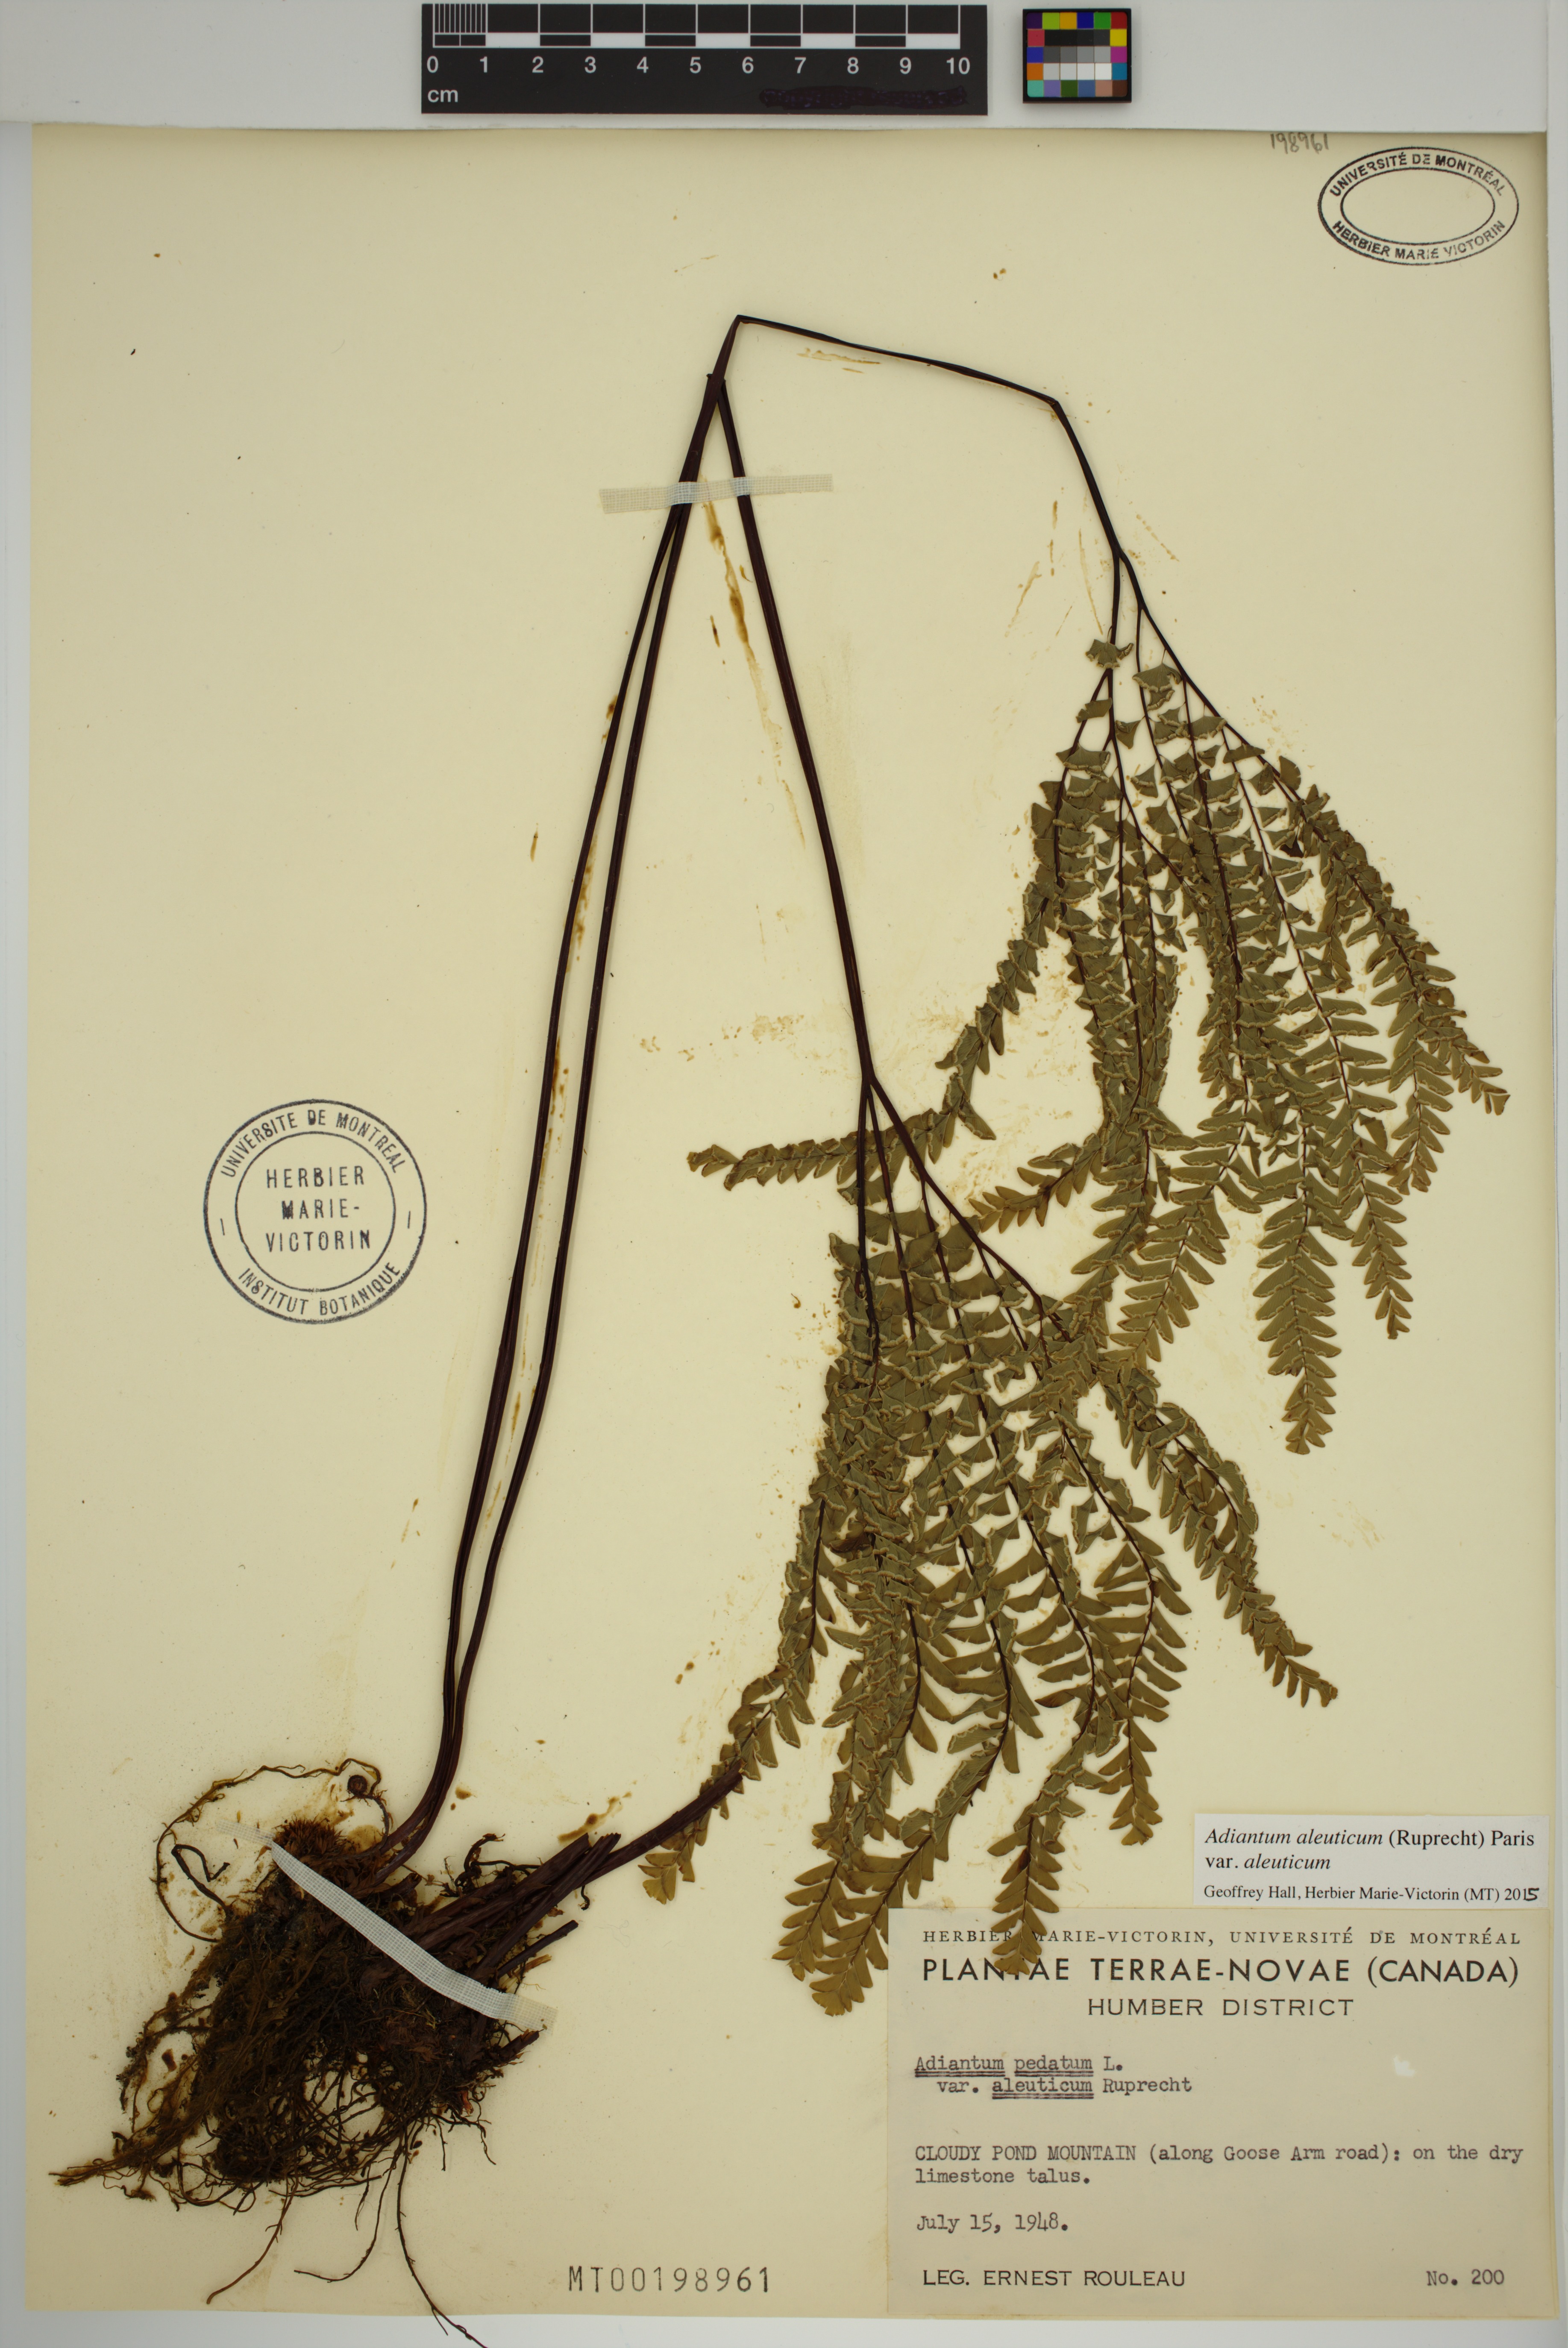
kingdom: Plantae
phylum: Tracheophyta
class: Polypodiopsida
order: Polypodiales
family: Pteridaceae
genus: Adiantum
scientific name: Adiantum aleuticum
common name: Aleutian maidenhair fern
